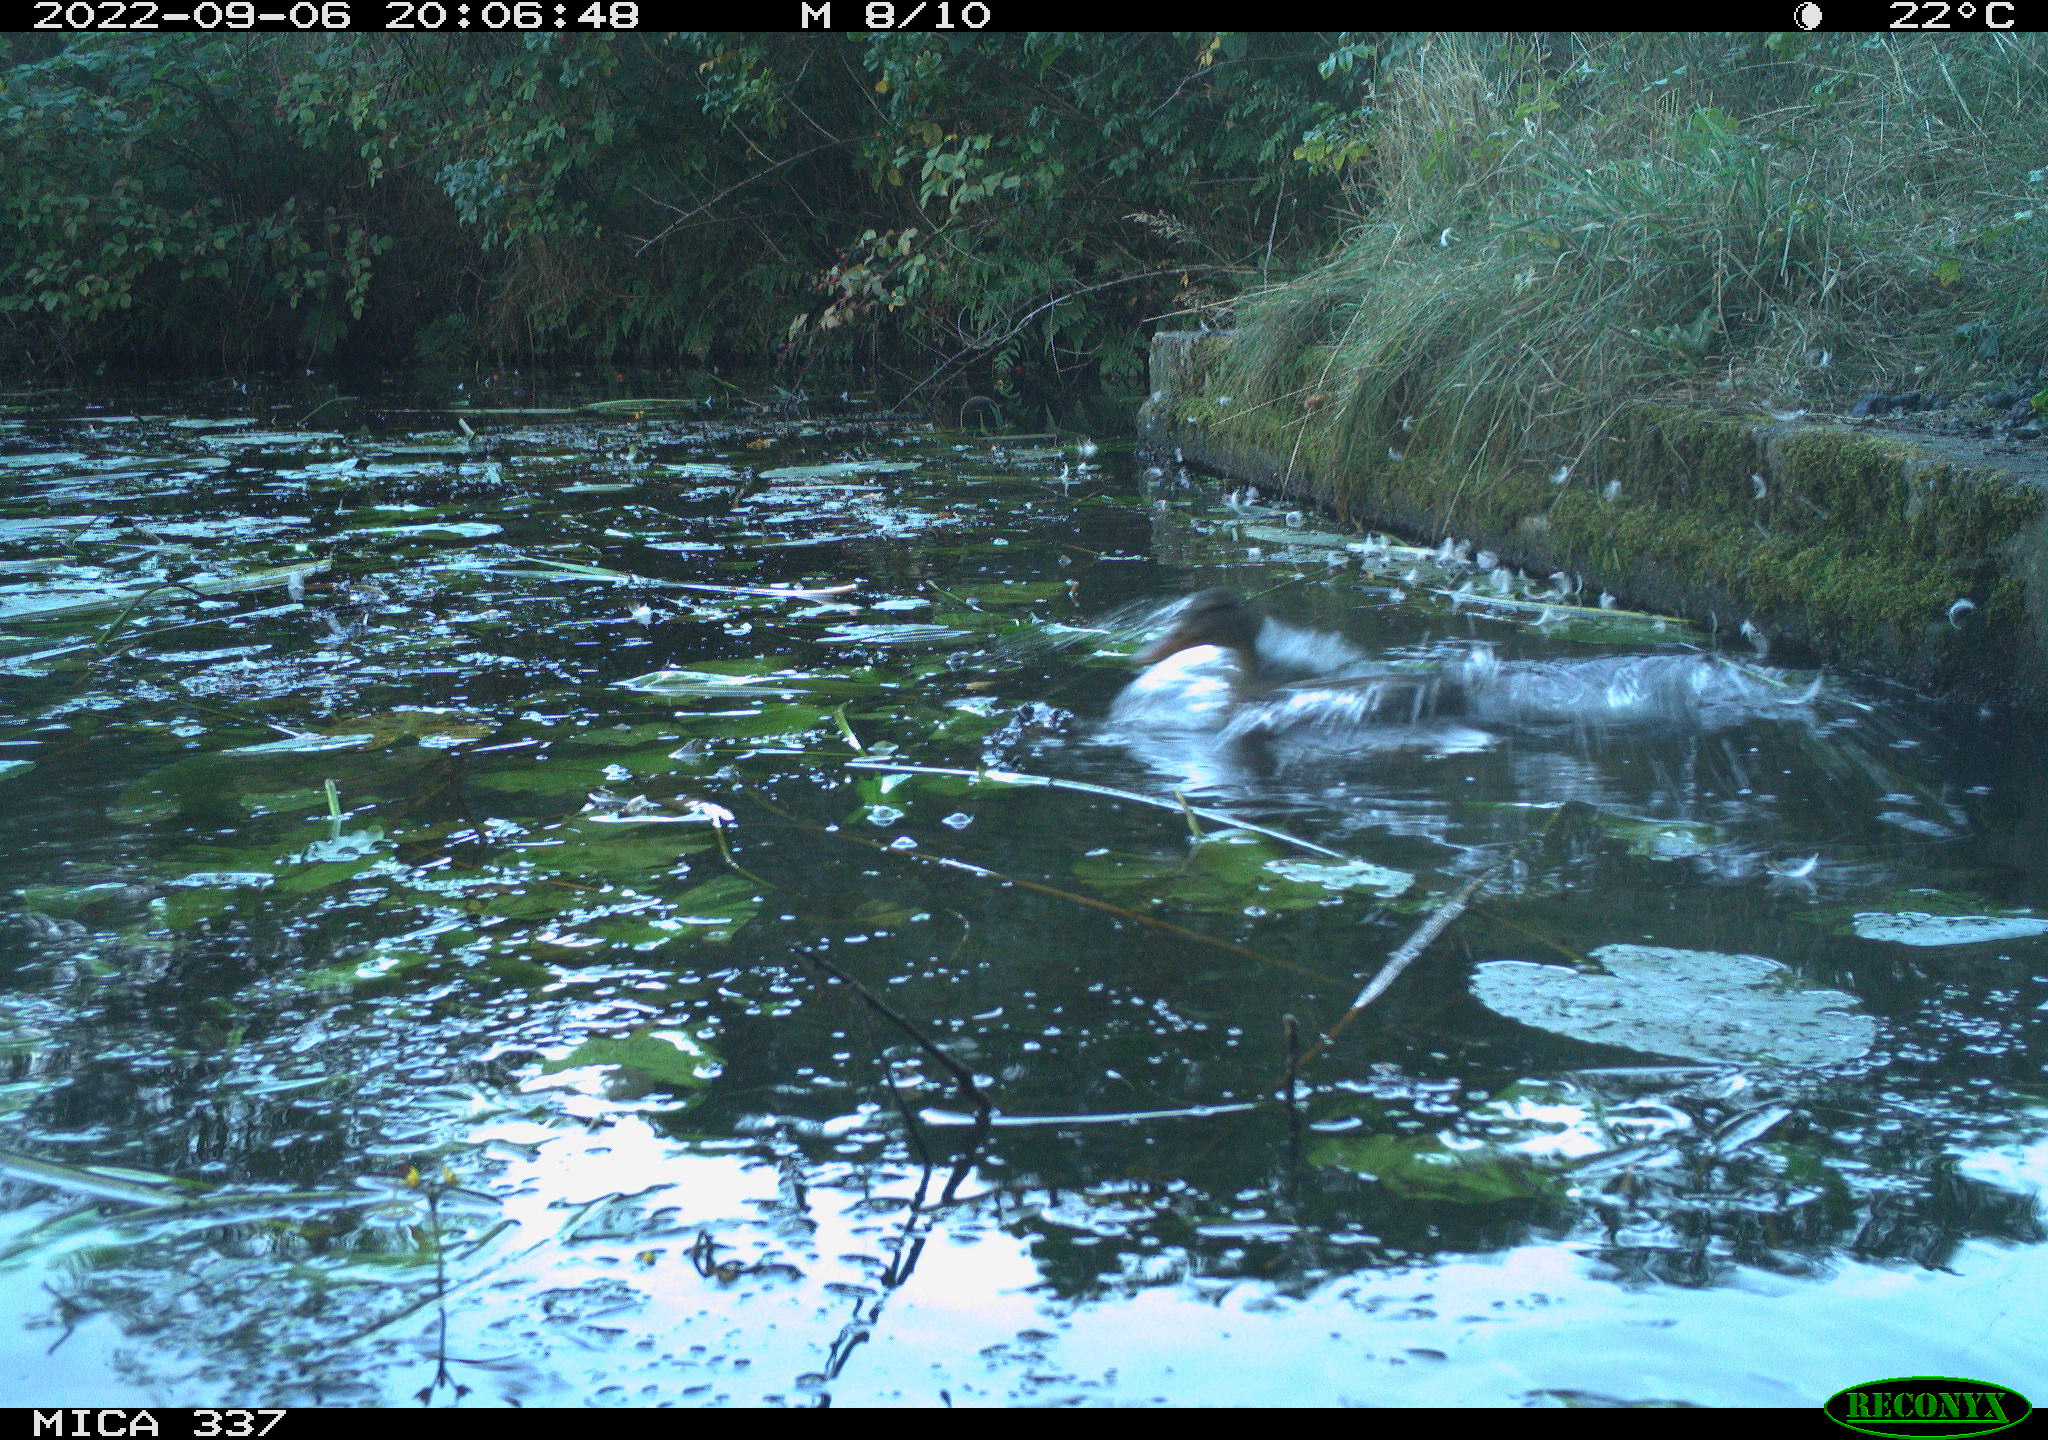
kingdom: Animalia
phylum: Chordata
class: Aves
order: Anseriformes
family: Anatidae
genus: Anas
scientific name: Anas platyrhynchos
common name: Mallard
